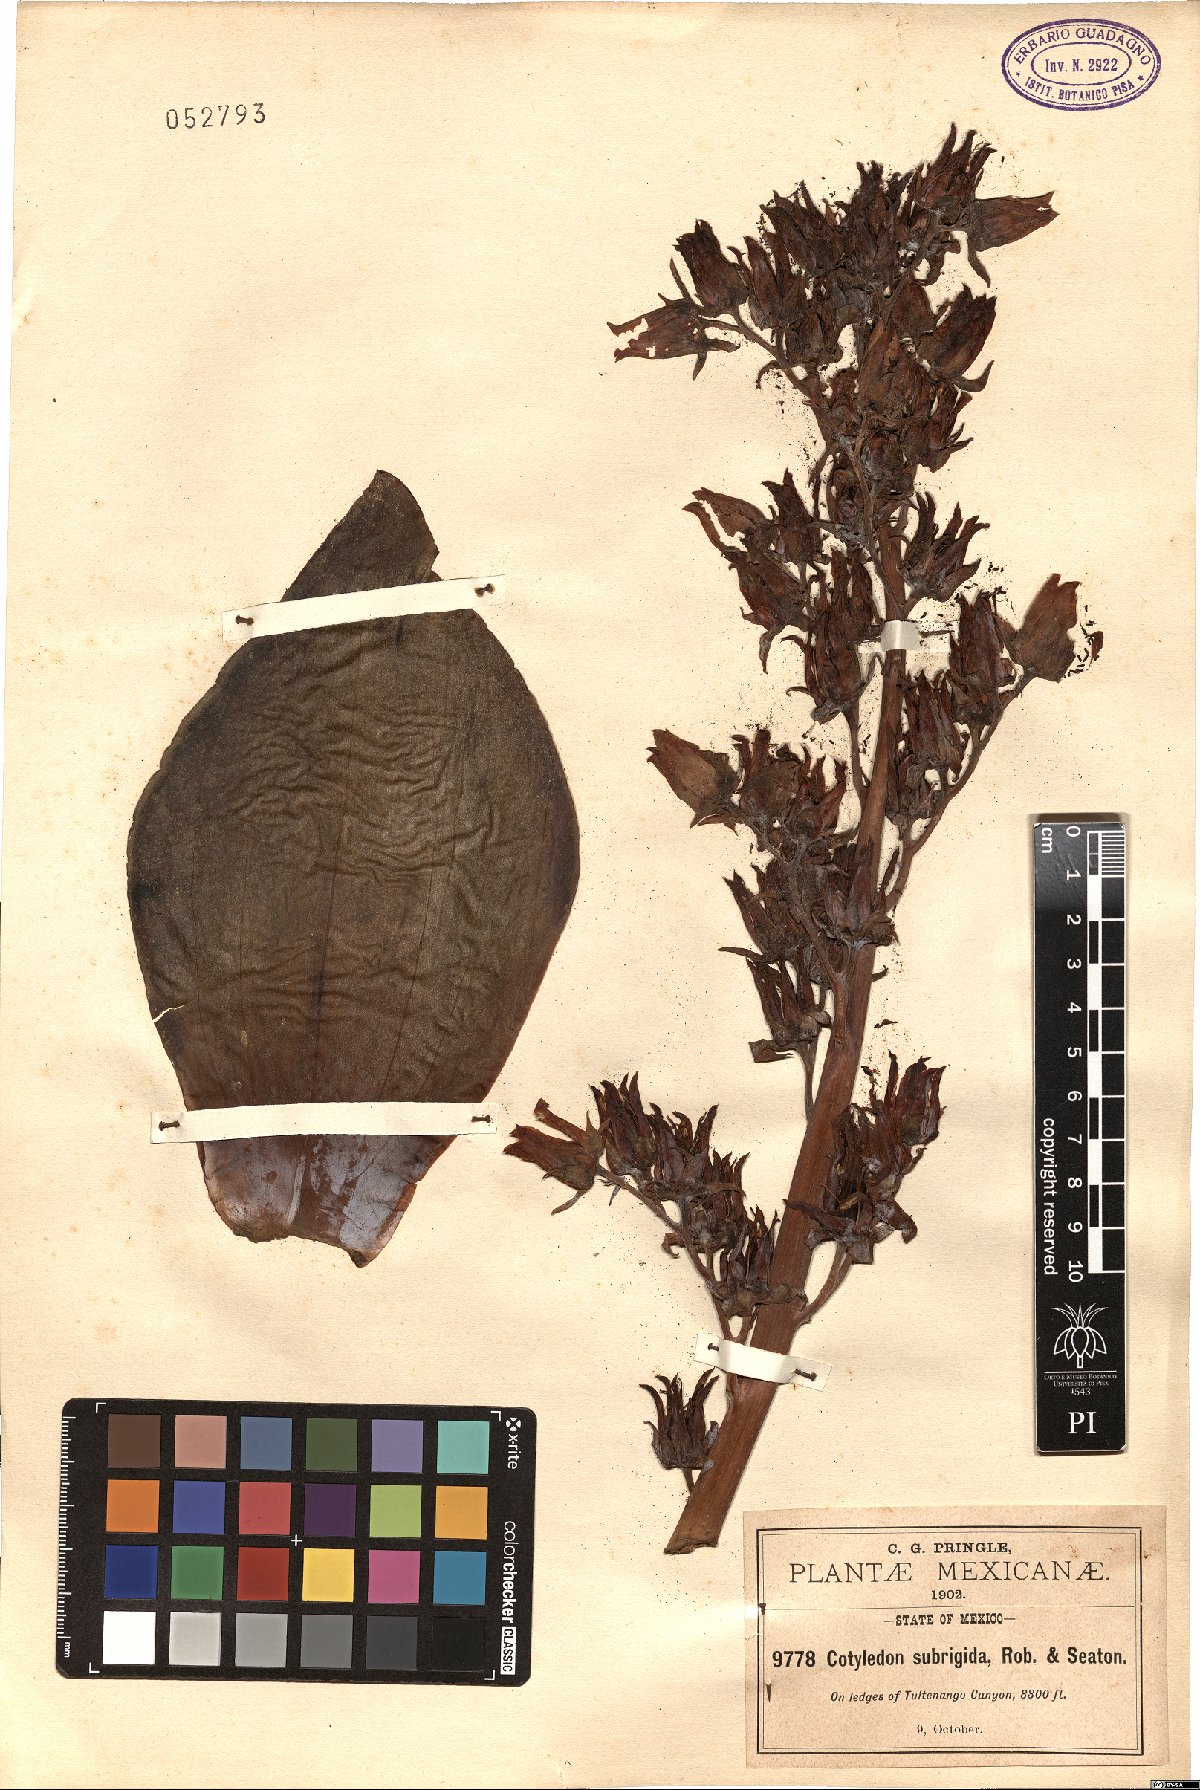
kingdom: Plantae
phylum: Tracheophyta
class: Magnoliopsida
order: Saxifragales
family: Crassulaceae
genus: Echeveria
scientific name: Echeveria subrigida
